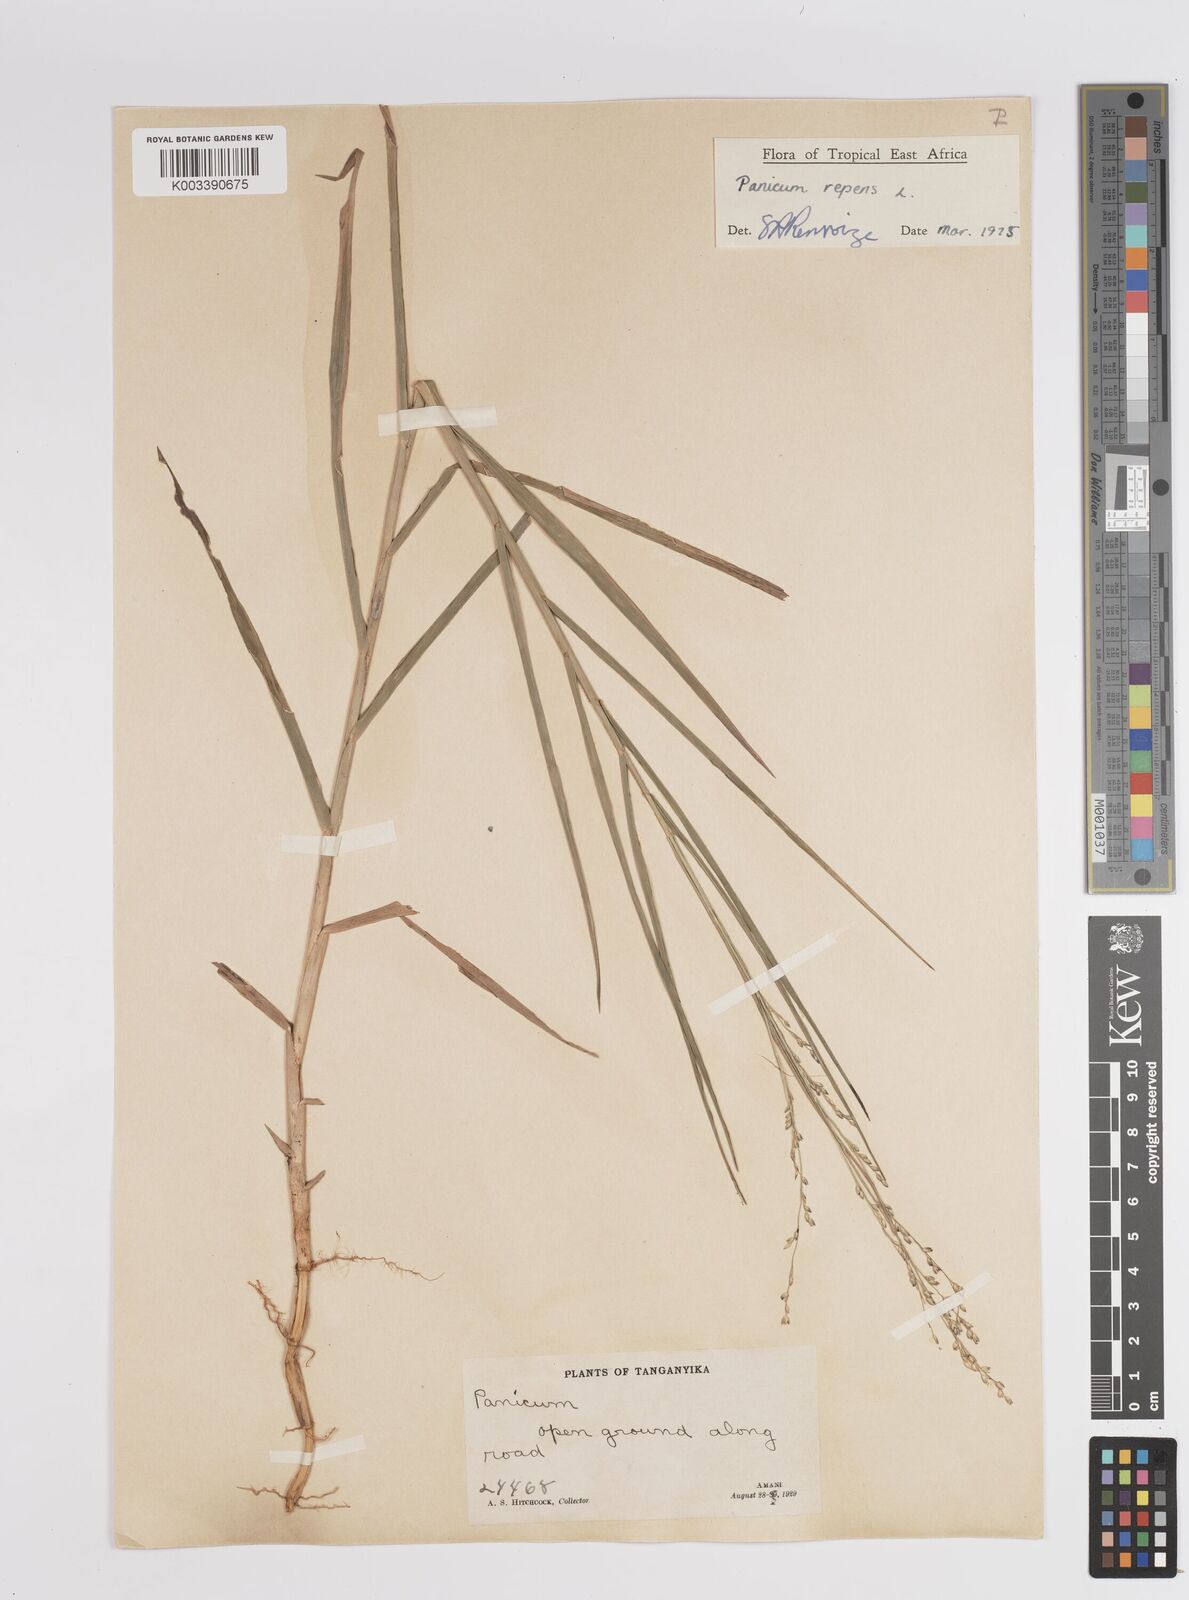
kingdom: Plantae
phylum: Tracheophyta
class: Liliopsida
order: Poales
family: Poaceae
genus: Panicum
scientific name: Panicum repens
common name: Torpedo grass
